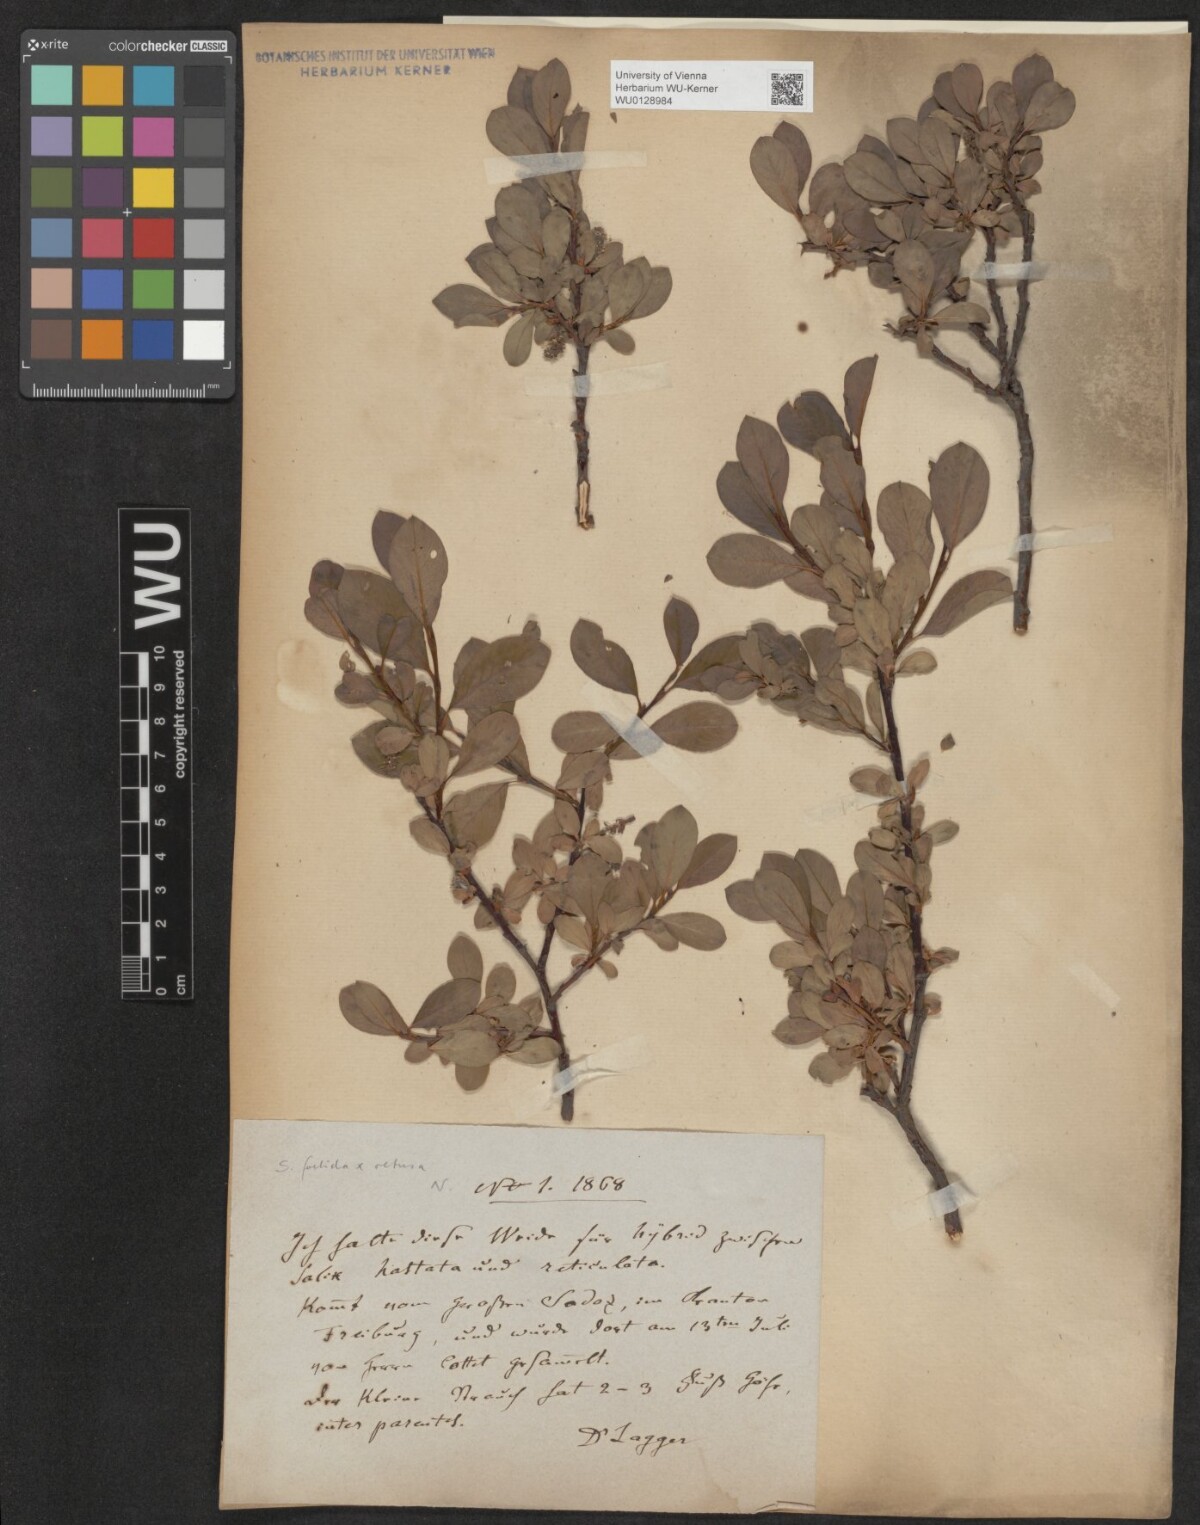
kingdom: Plantae
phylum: Tracheophyta
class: Magnoliopsida
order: Malpighiales
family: Salicaceae
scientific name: Salicaceae
